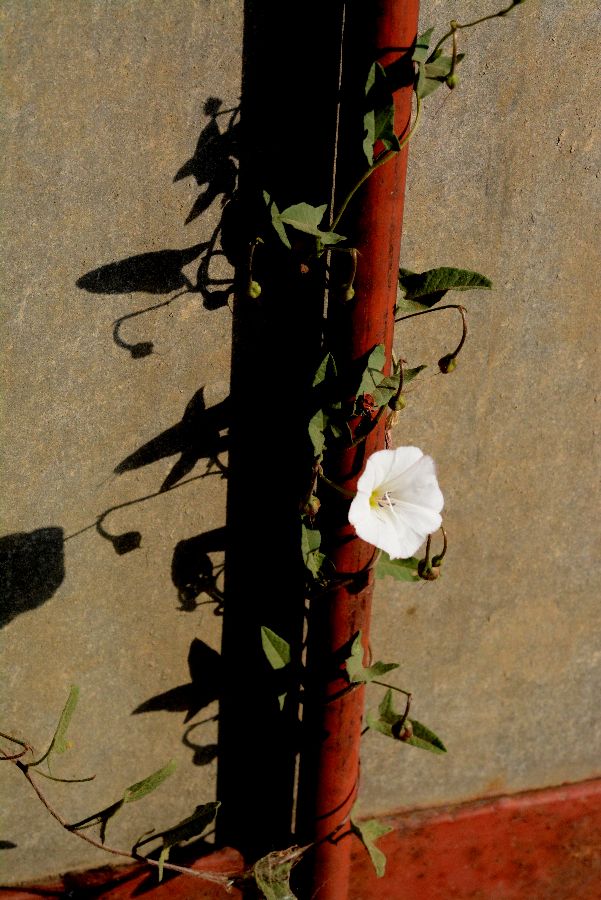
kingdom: Plantae
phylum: Tracheophyta
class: Magnoliopsida
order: Solanales
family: Convolvulaceae
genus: Convolvulus
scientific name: Convolvulus arvensis
